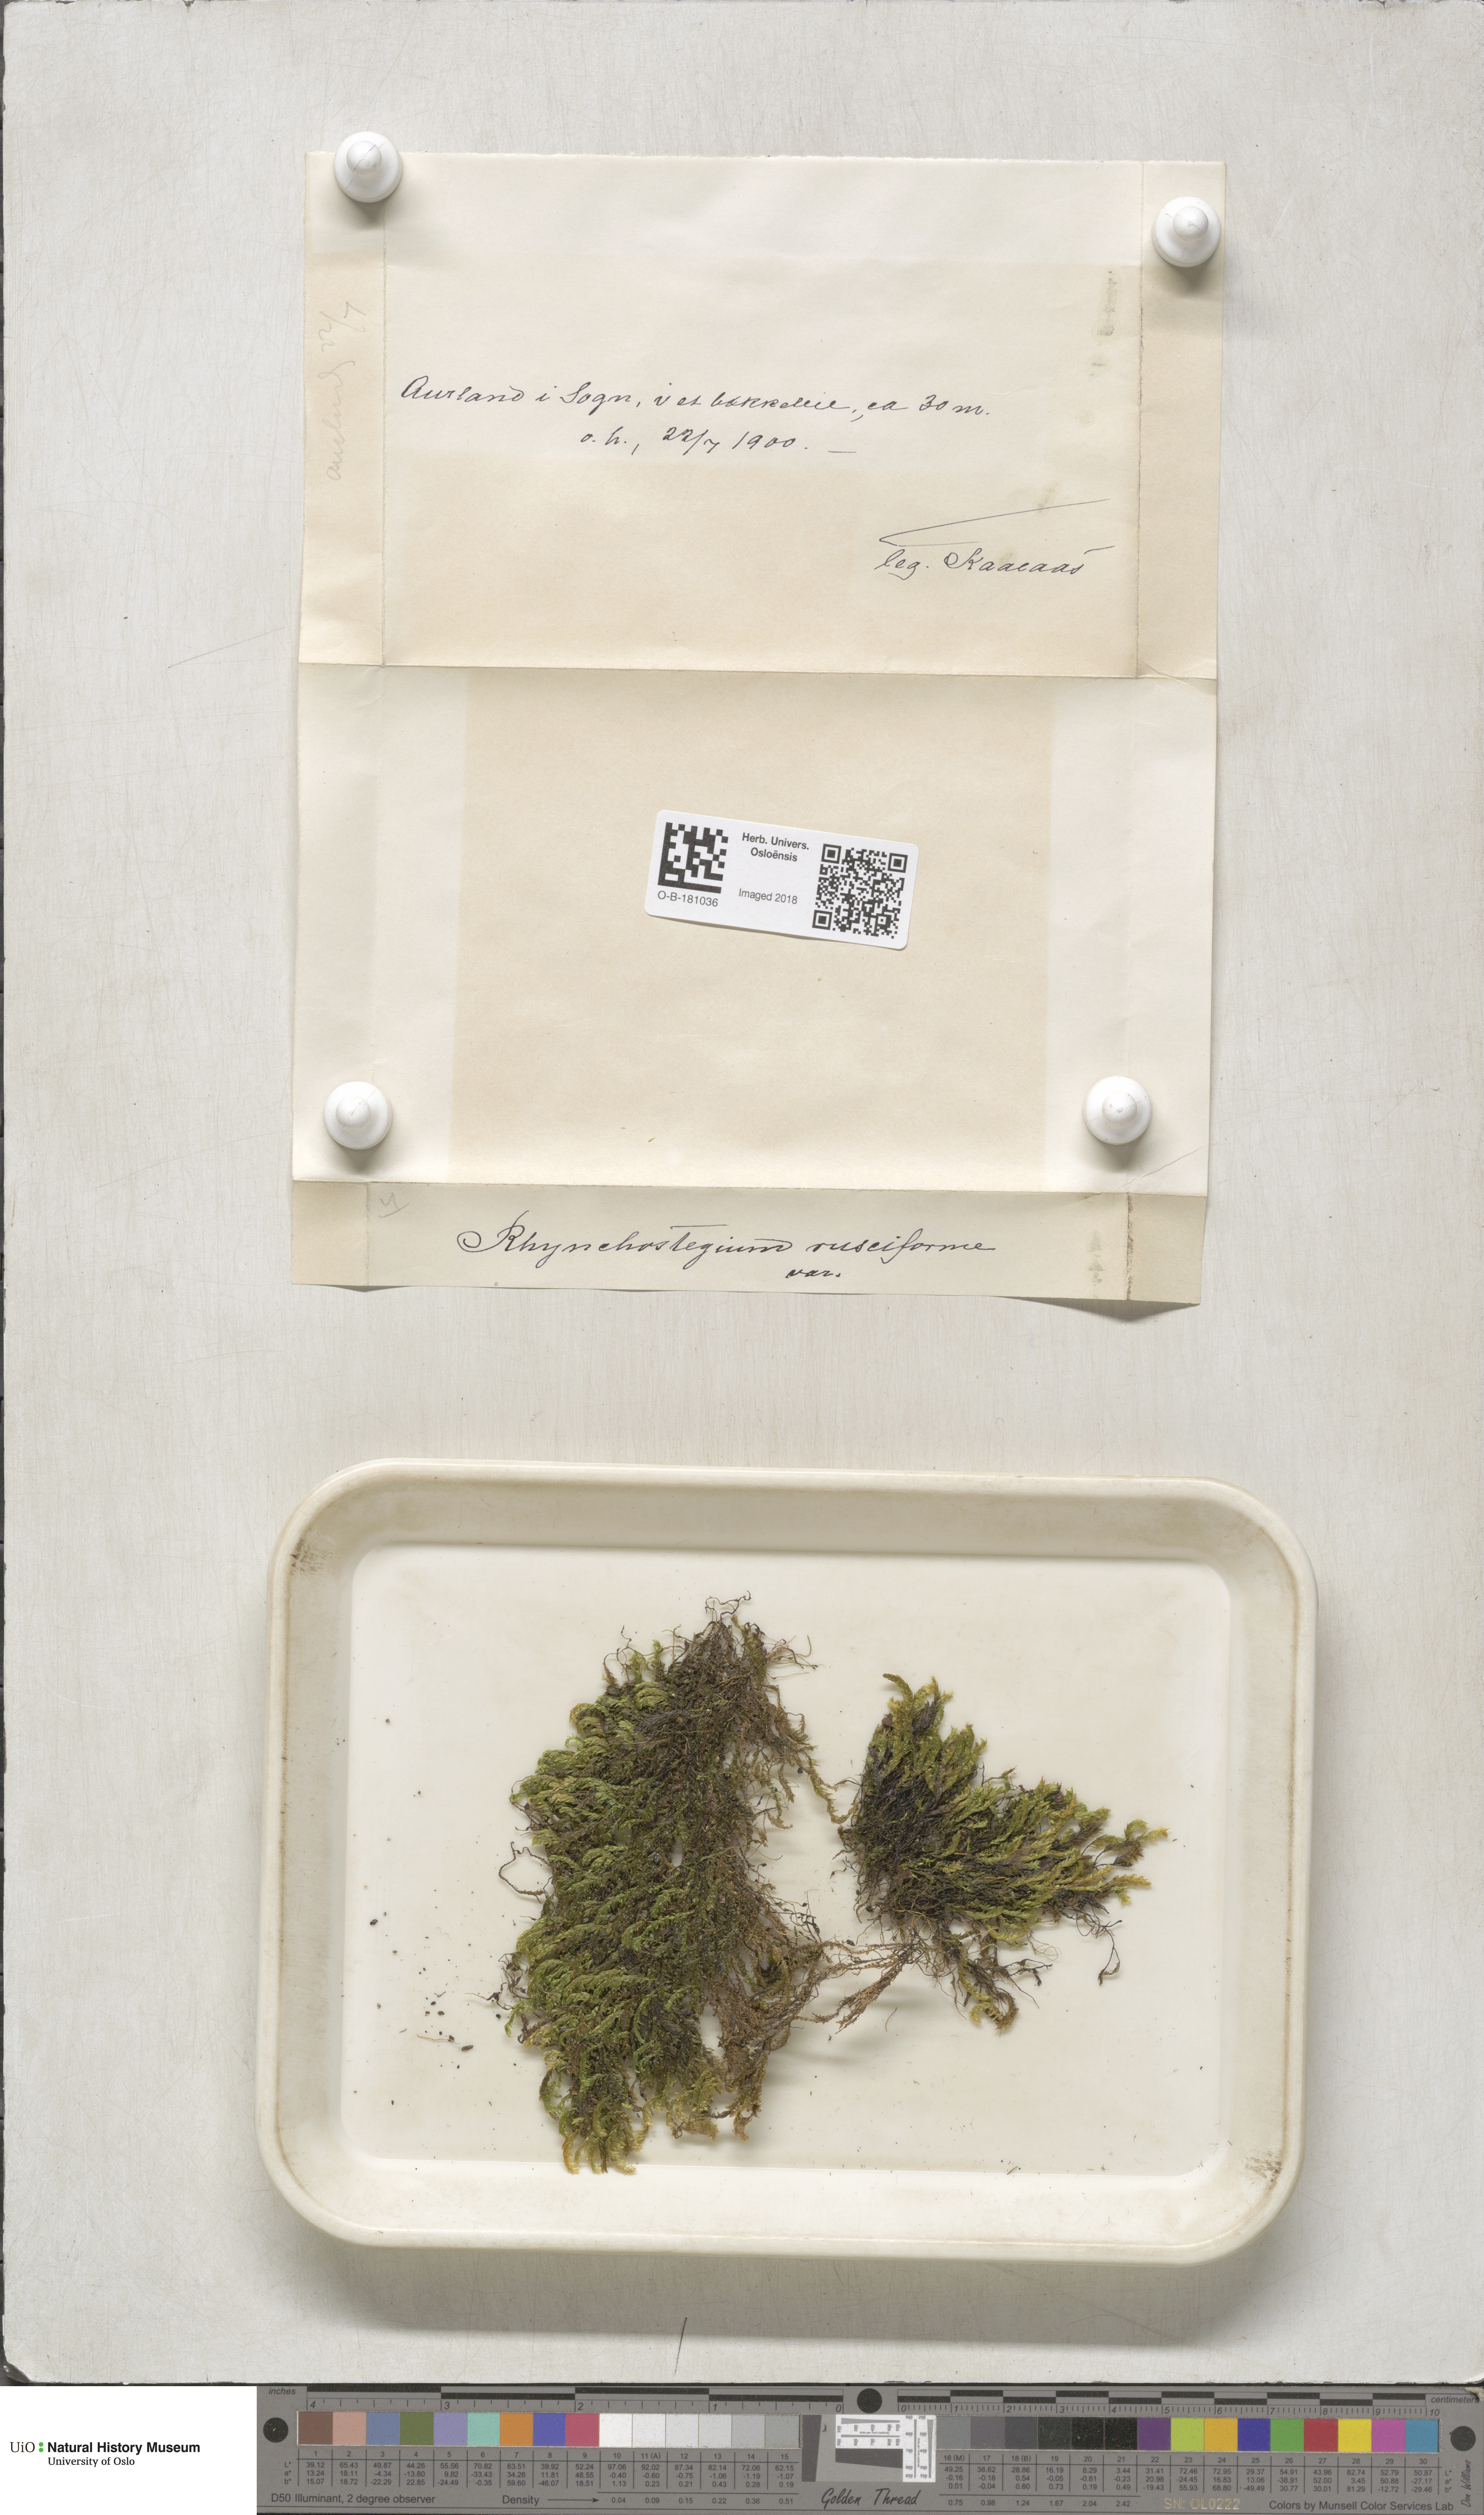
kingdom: Plantae
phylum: Bryophyta
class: Bryopsida
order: Hypnales
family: Brachytheciaceae
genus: Rhynchostegium
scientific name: Rhynchostegium riparioides
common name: Platyhypnidium moss
